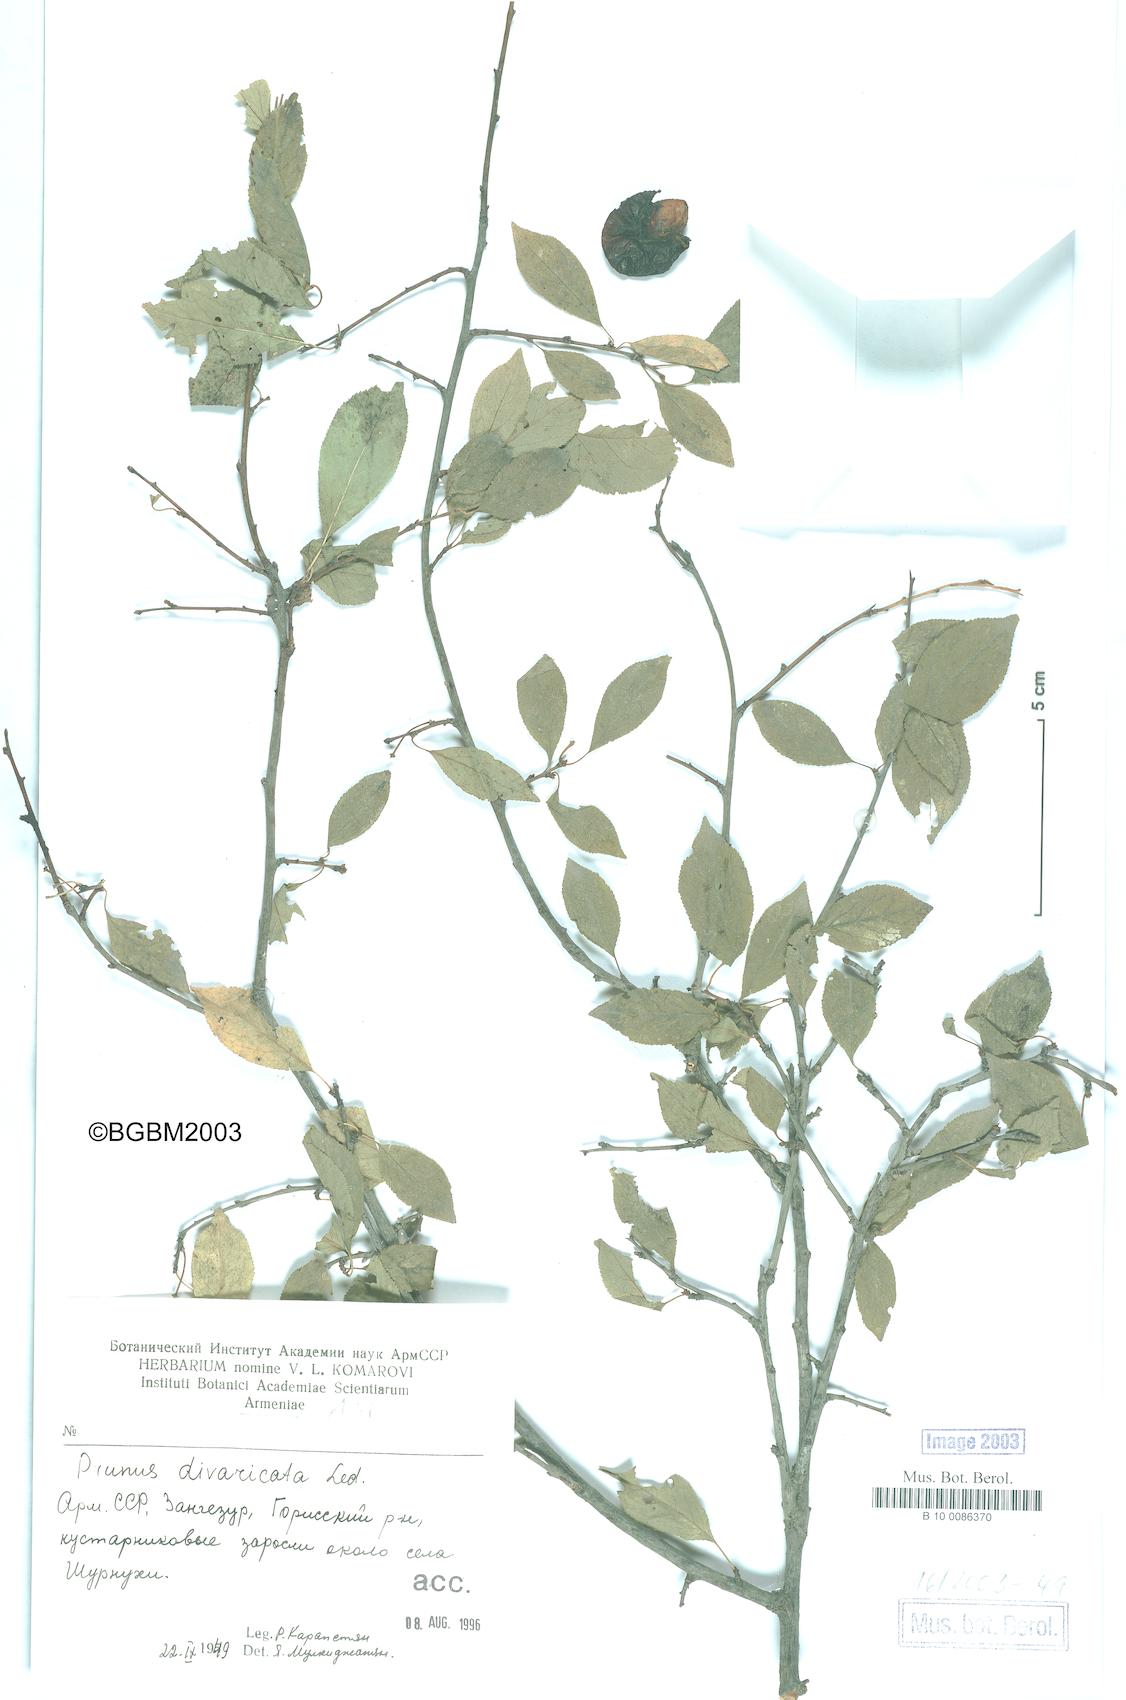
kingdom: Plantae
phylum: Tracheophyta
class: Magnoliopsida
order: Rosales
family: Rosaceae
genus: Prunus
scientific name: Prunus cerasifera
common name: Cherry plum
